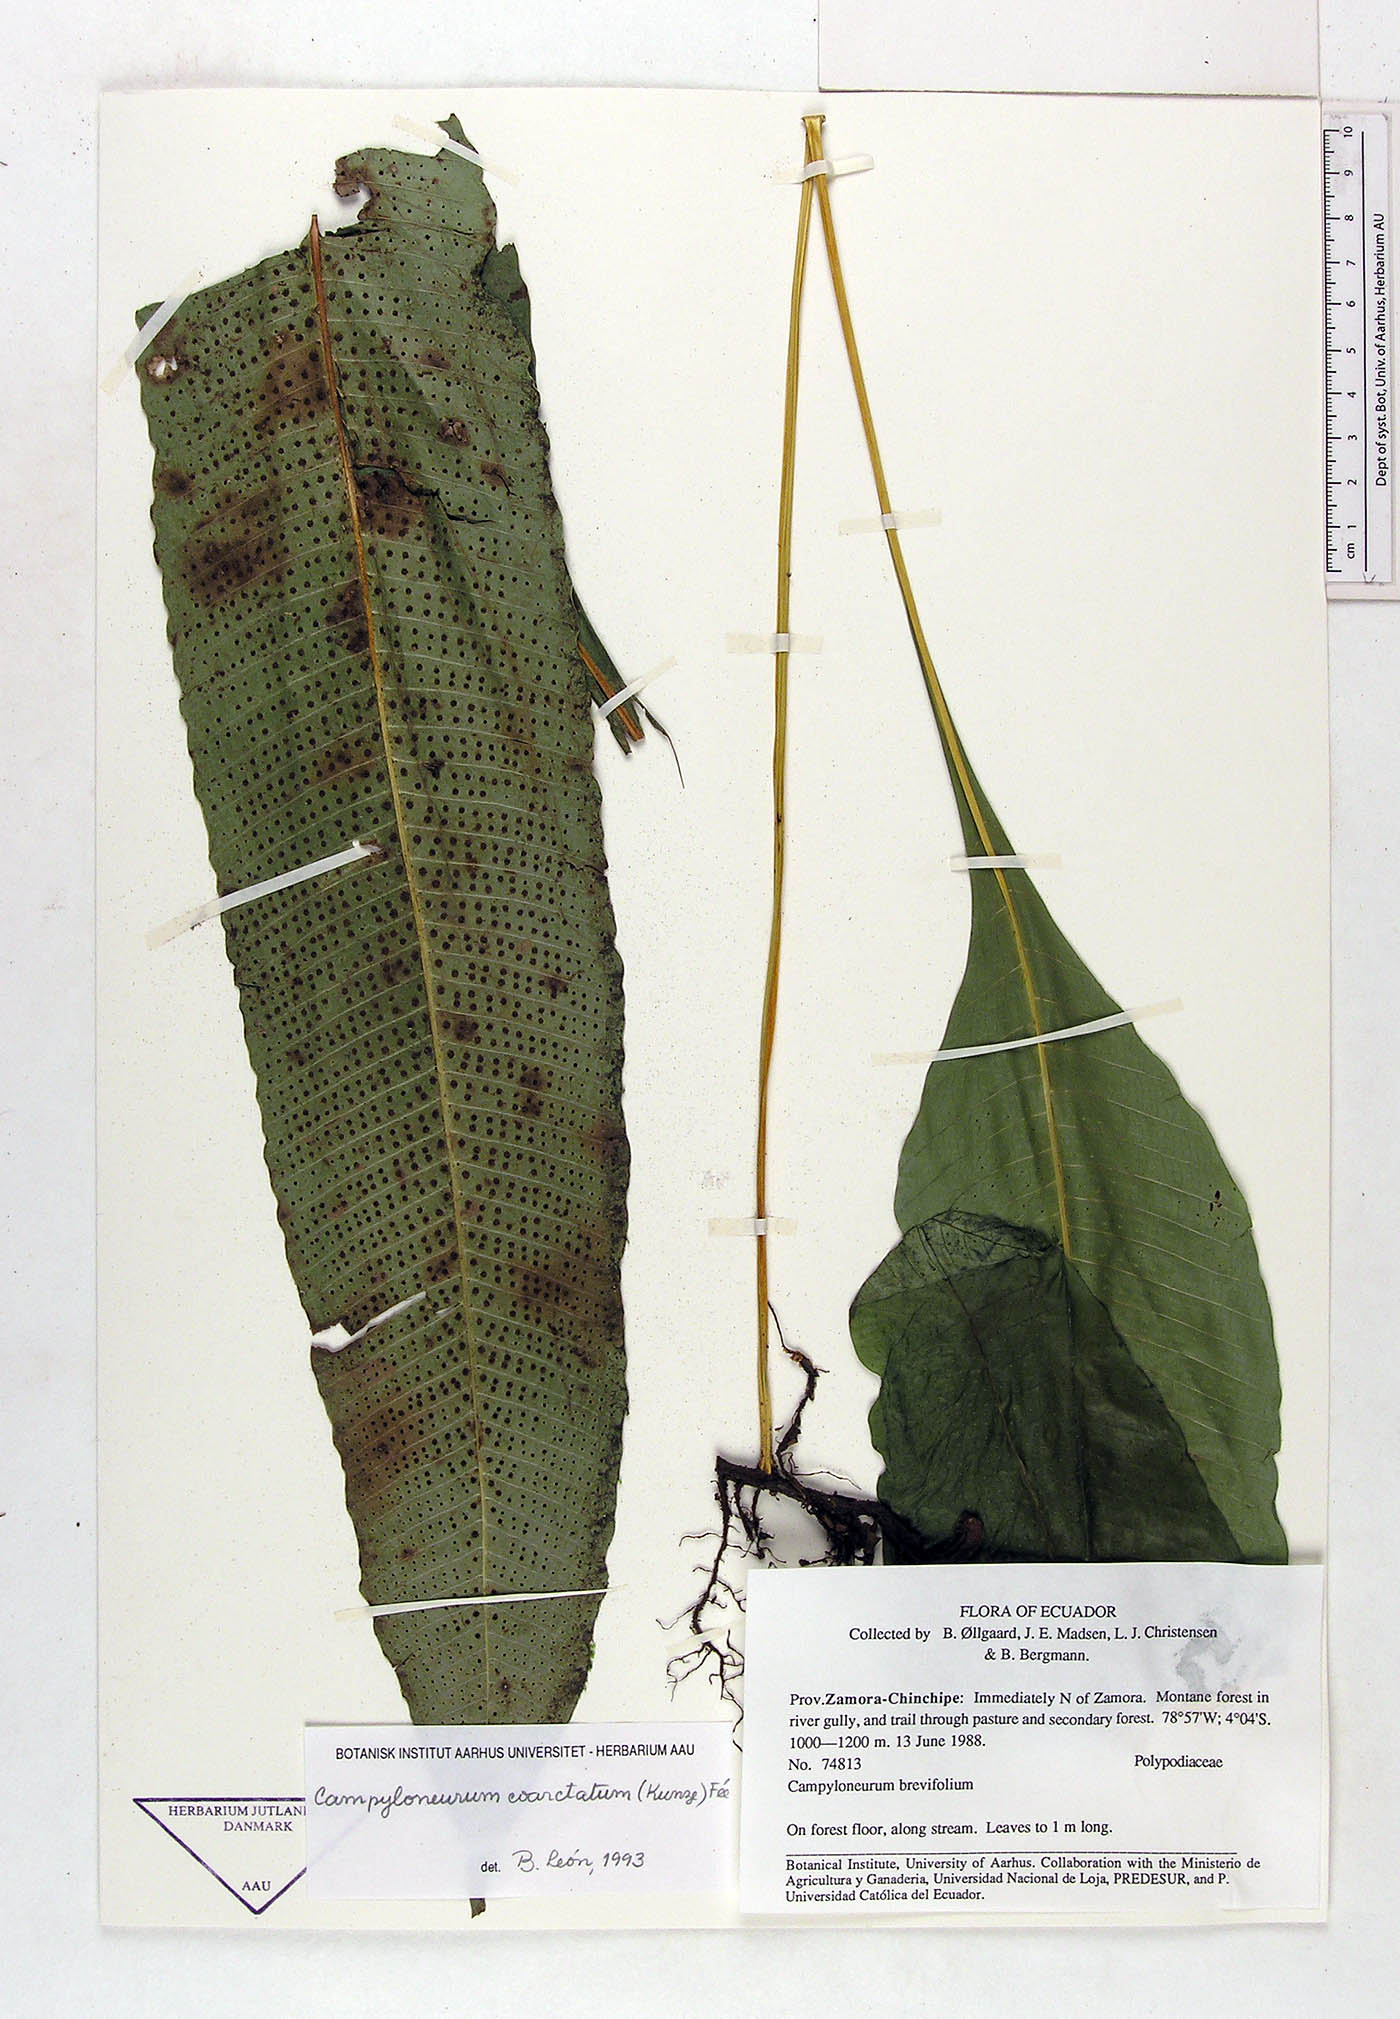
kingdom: Plantae
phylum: Tracheophyta
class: Polypodiopsida
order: Polypodiales
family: Polypodiaceae
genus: Campyloneurum
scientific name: Campyloneurum coarctatum
